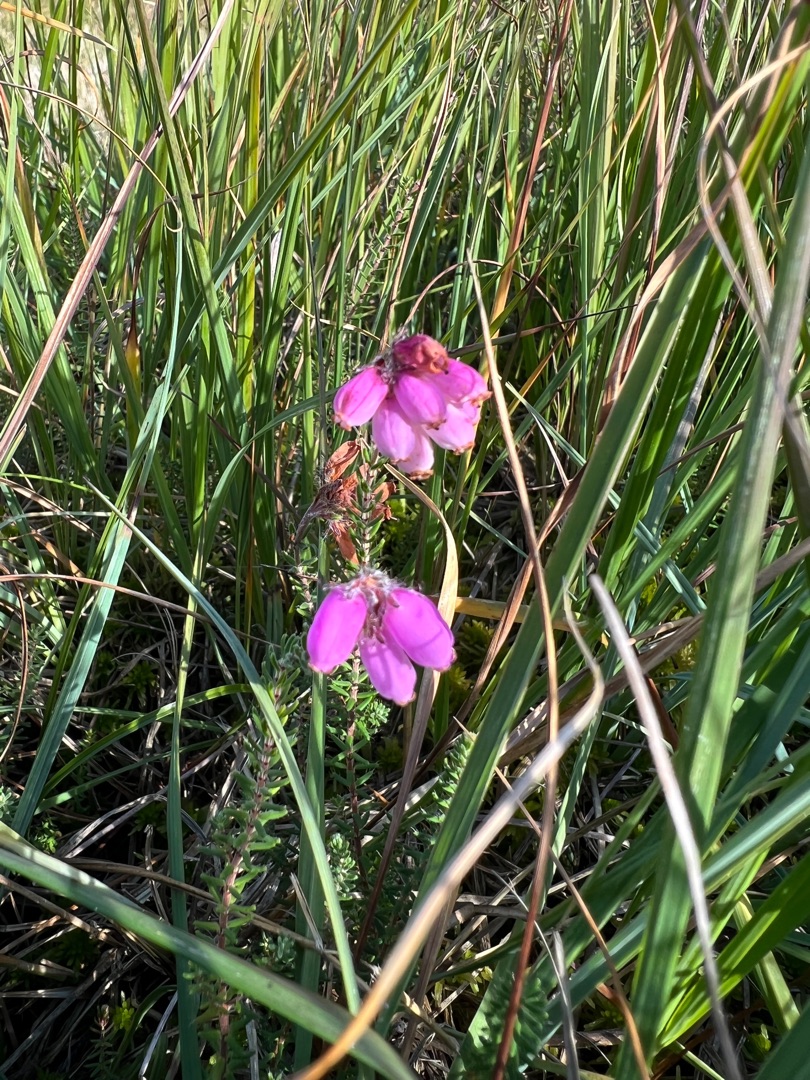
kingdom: Plantae
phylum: Tracheophyta
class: Magnoliopsida
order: Ericales
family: Ericaceae
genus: Erica
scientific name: Erica tetralix
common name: Klokkelyng
